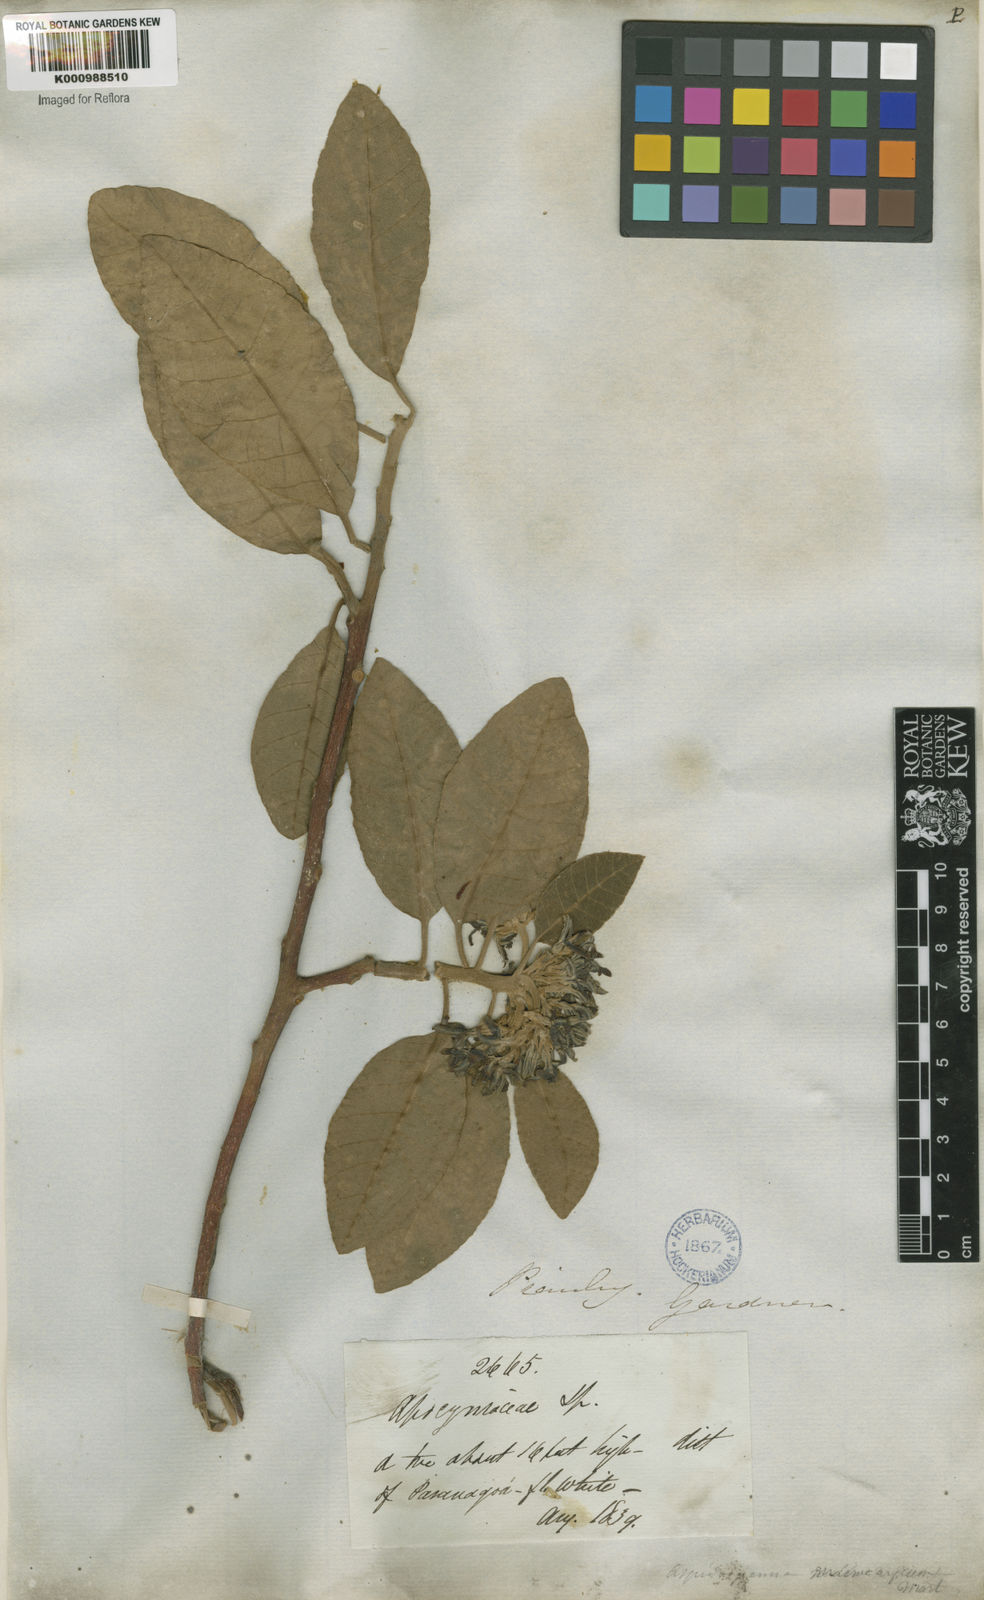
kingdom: Plantae
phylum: Tracheophyta
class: Magnoliopsida
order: Gentianales
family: Apocynaceae
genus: Aspidosperma
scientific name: Aspidosperma macrocarpon
